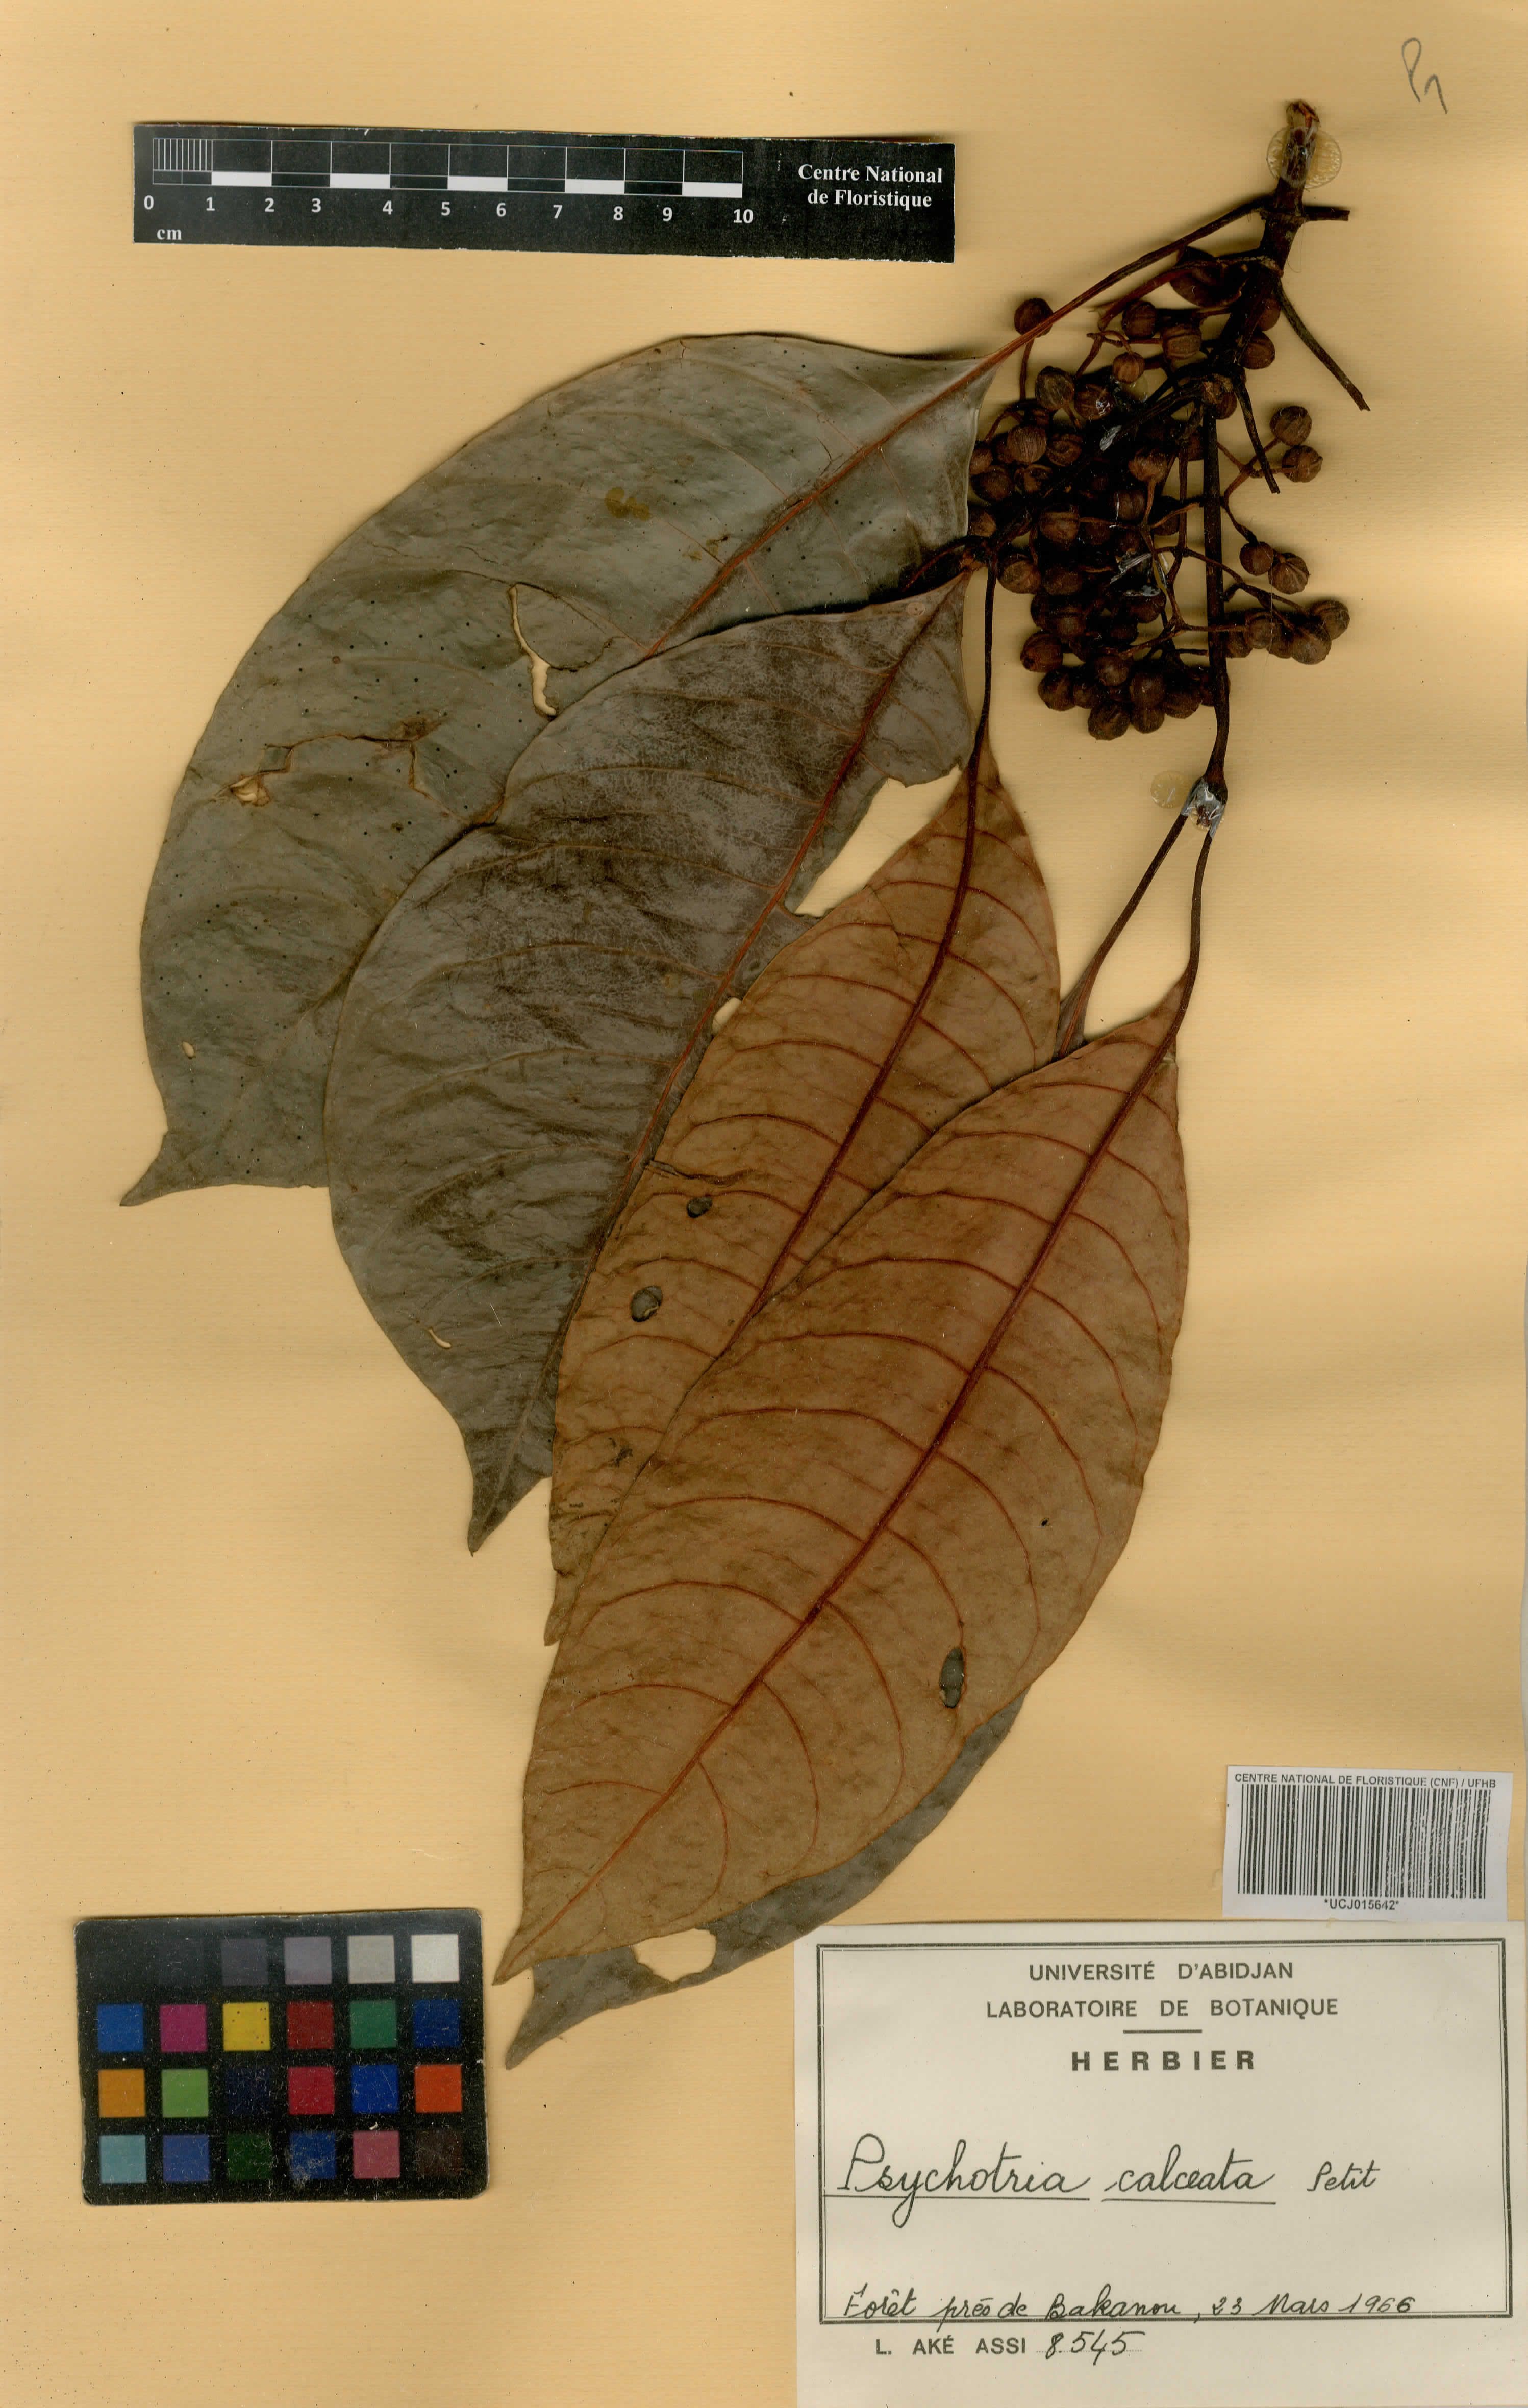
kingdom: Plantae
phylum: Tracheophyta
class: Magnoliopsida
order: Gentianales
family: Rubiaceae
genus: Psychotria
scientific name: Psychotria calceata
